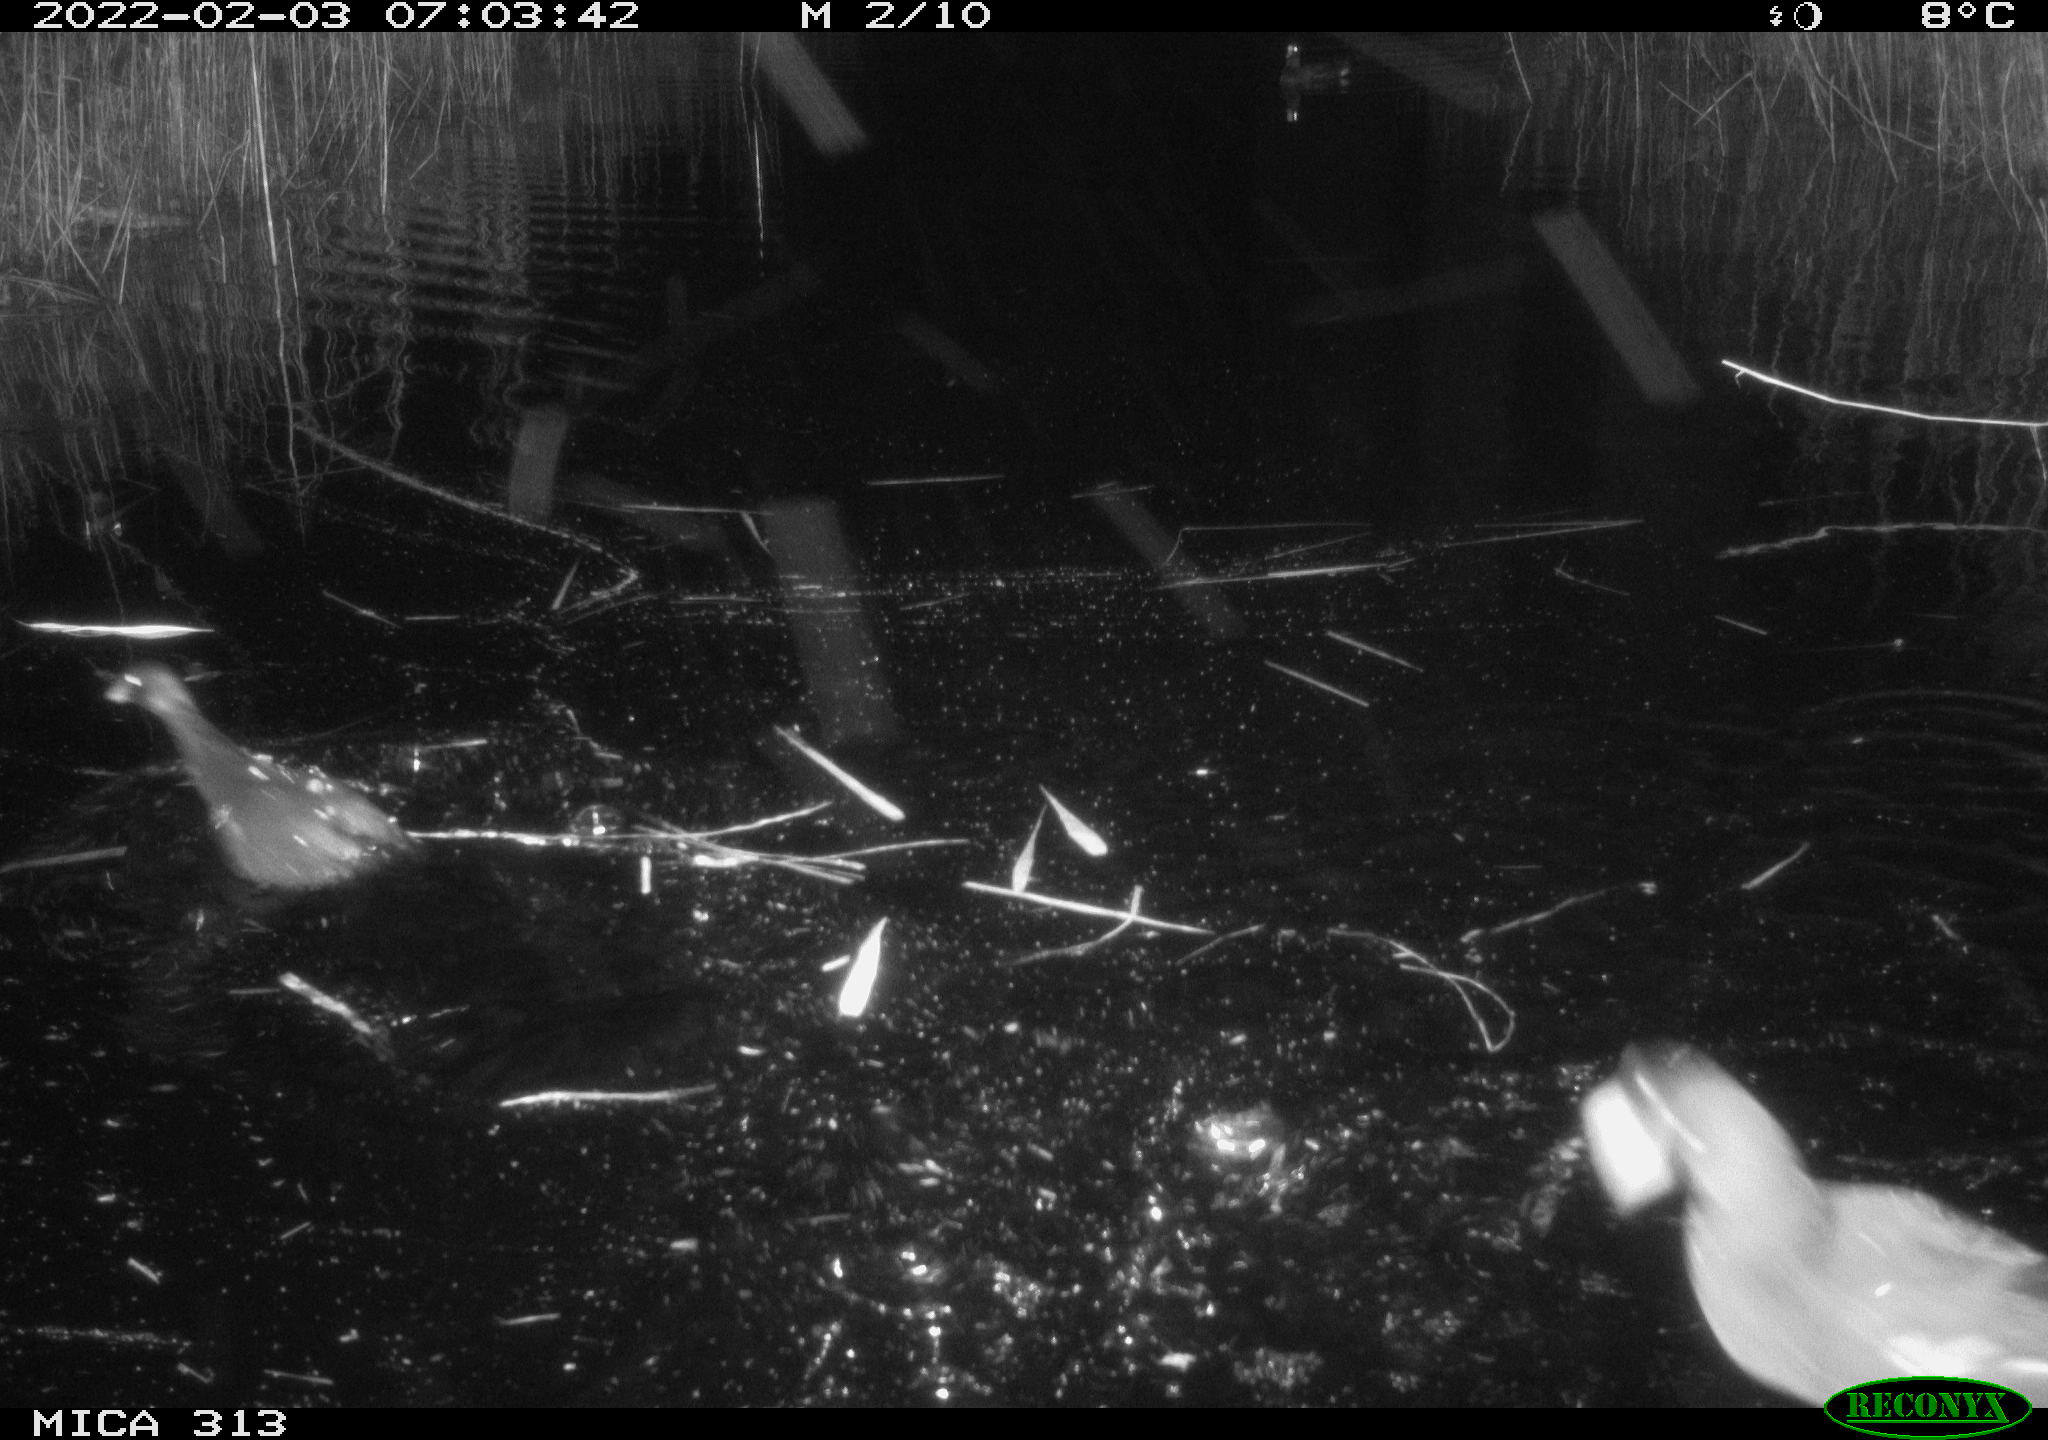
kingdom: Animalia
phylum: Chordata
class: Aves
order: Gruiformes
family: Rallidae
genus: Gallinula
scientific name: Gallinula chloropus
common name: Common moorhen
